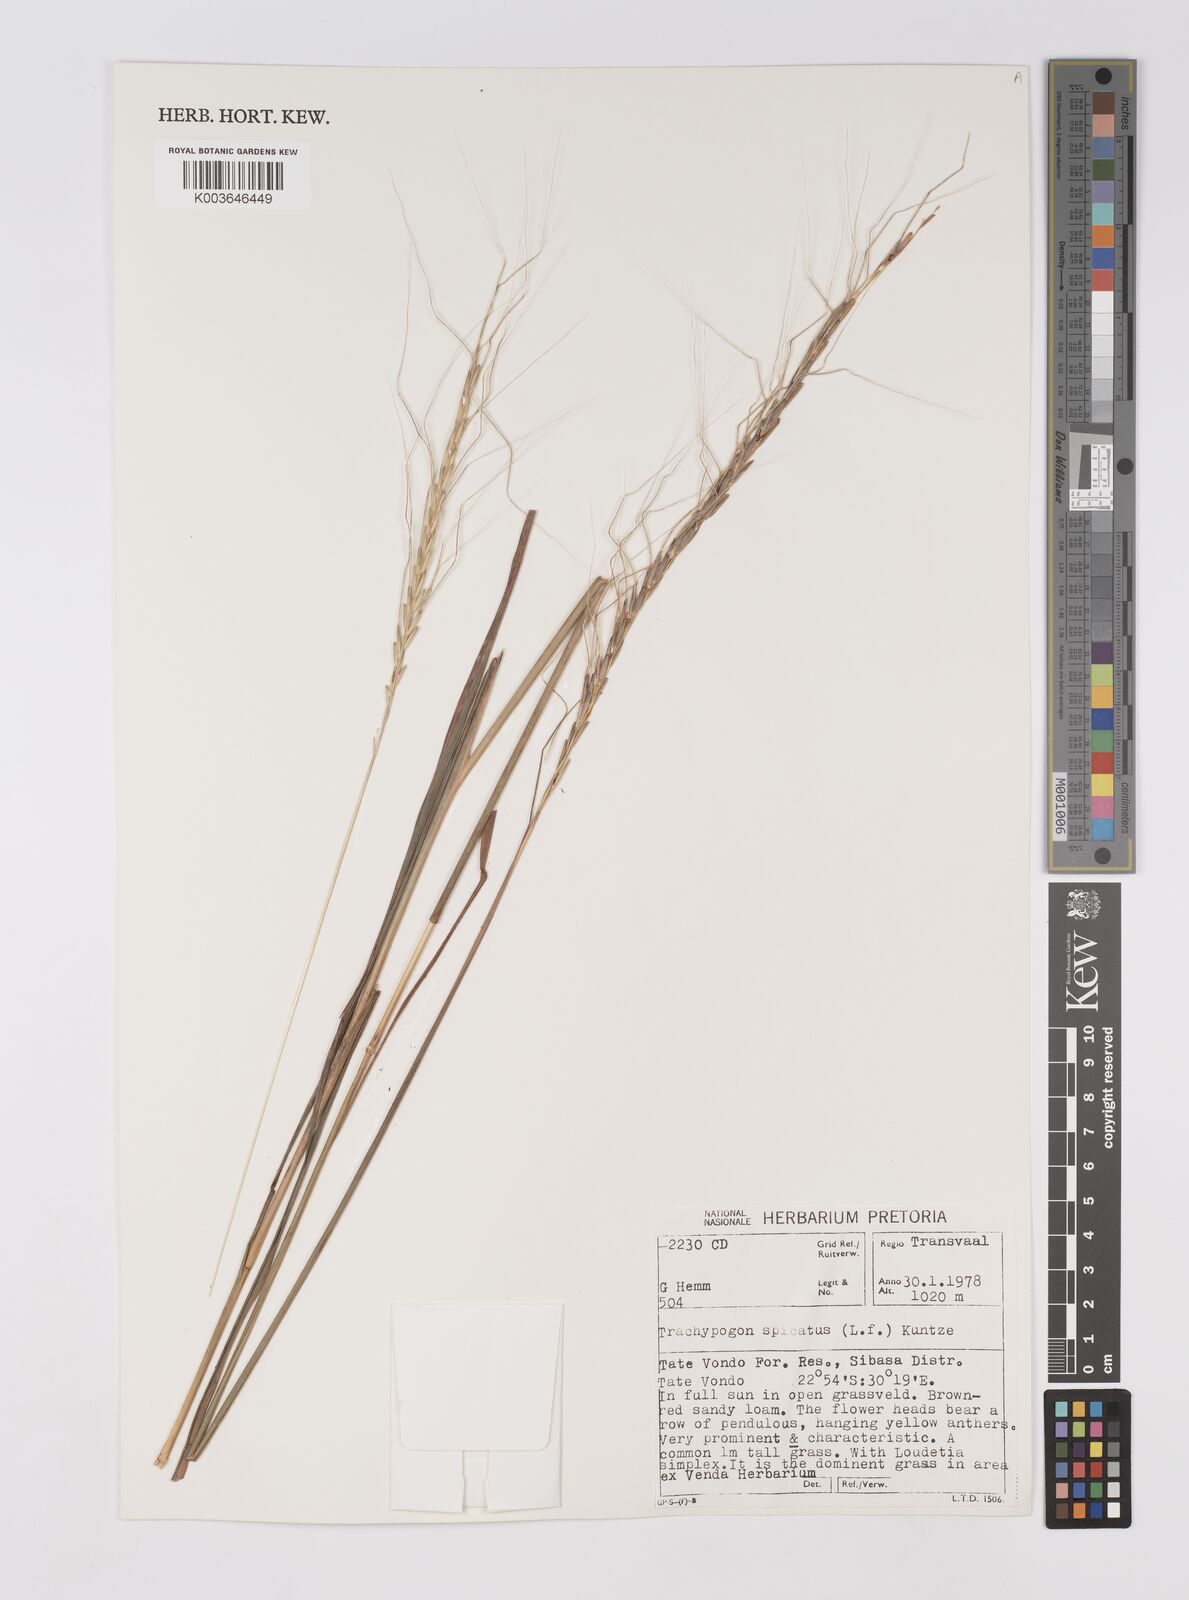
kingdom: Plantae
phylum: Tracheophyta
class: Liliopsida
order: Poales
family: Poaceae
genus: Trachypogon
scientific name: Trachypogon spicatus
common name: Crinkle-awn
